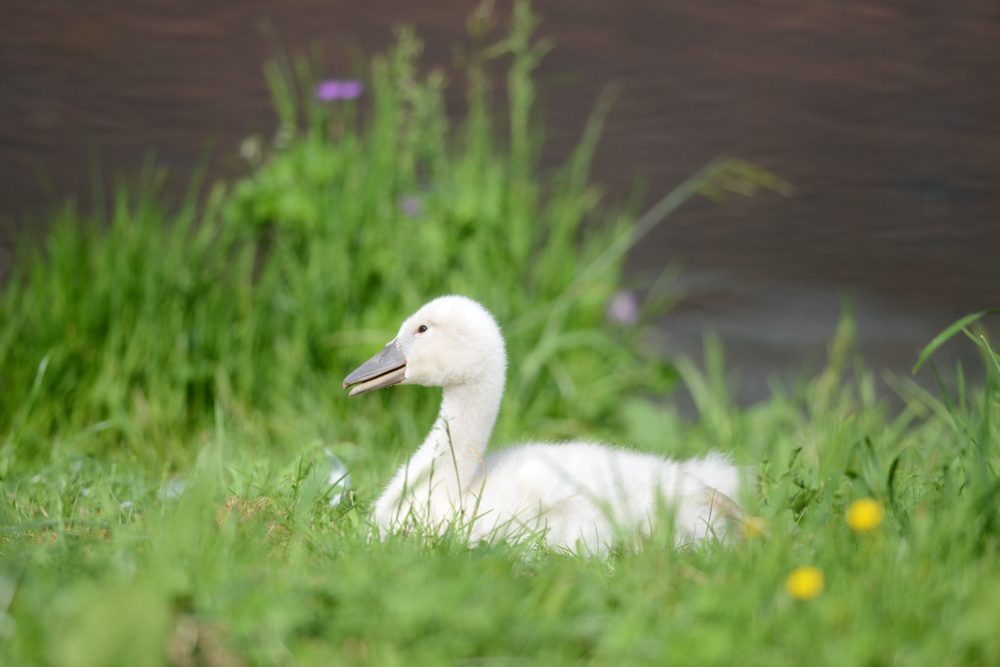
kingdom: Animalia
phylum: Chordata
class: Aves
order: Anseriformes
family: Anatidae
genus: Cygnus
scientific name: Cygnus olor
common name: Mute swan
